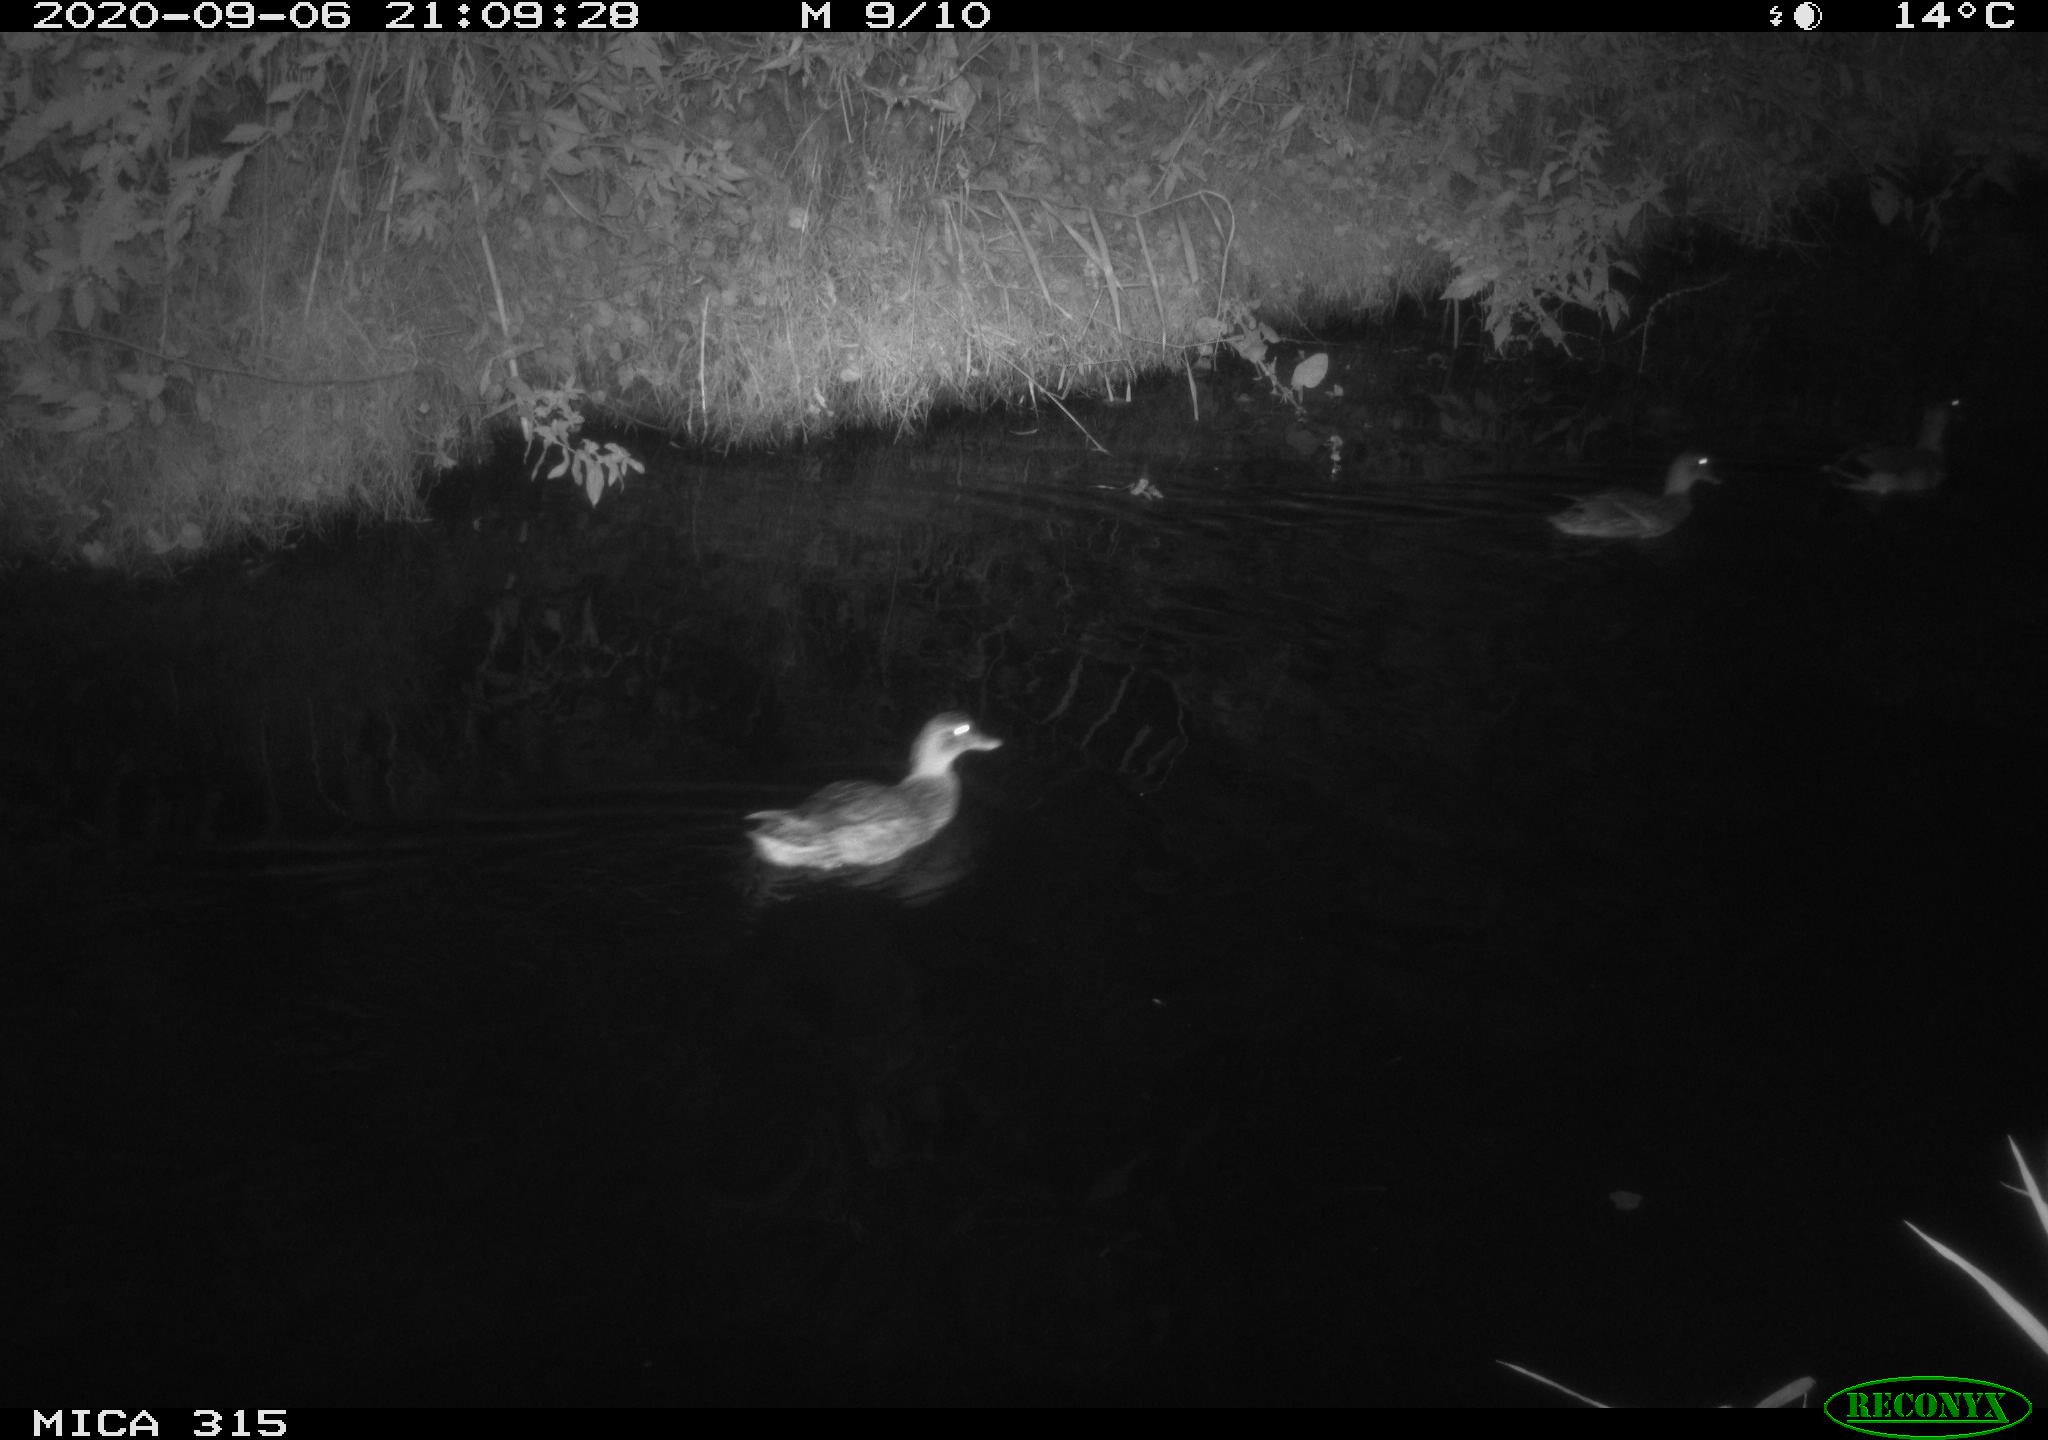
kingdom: Animalia
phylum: Chordata
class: Aves
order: Anseriformes
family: Anatidae
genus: Anas
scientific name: Anas platyrhynchos
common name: Mallard
